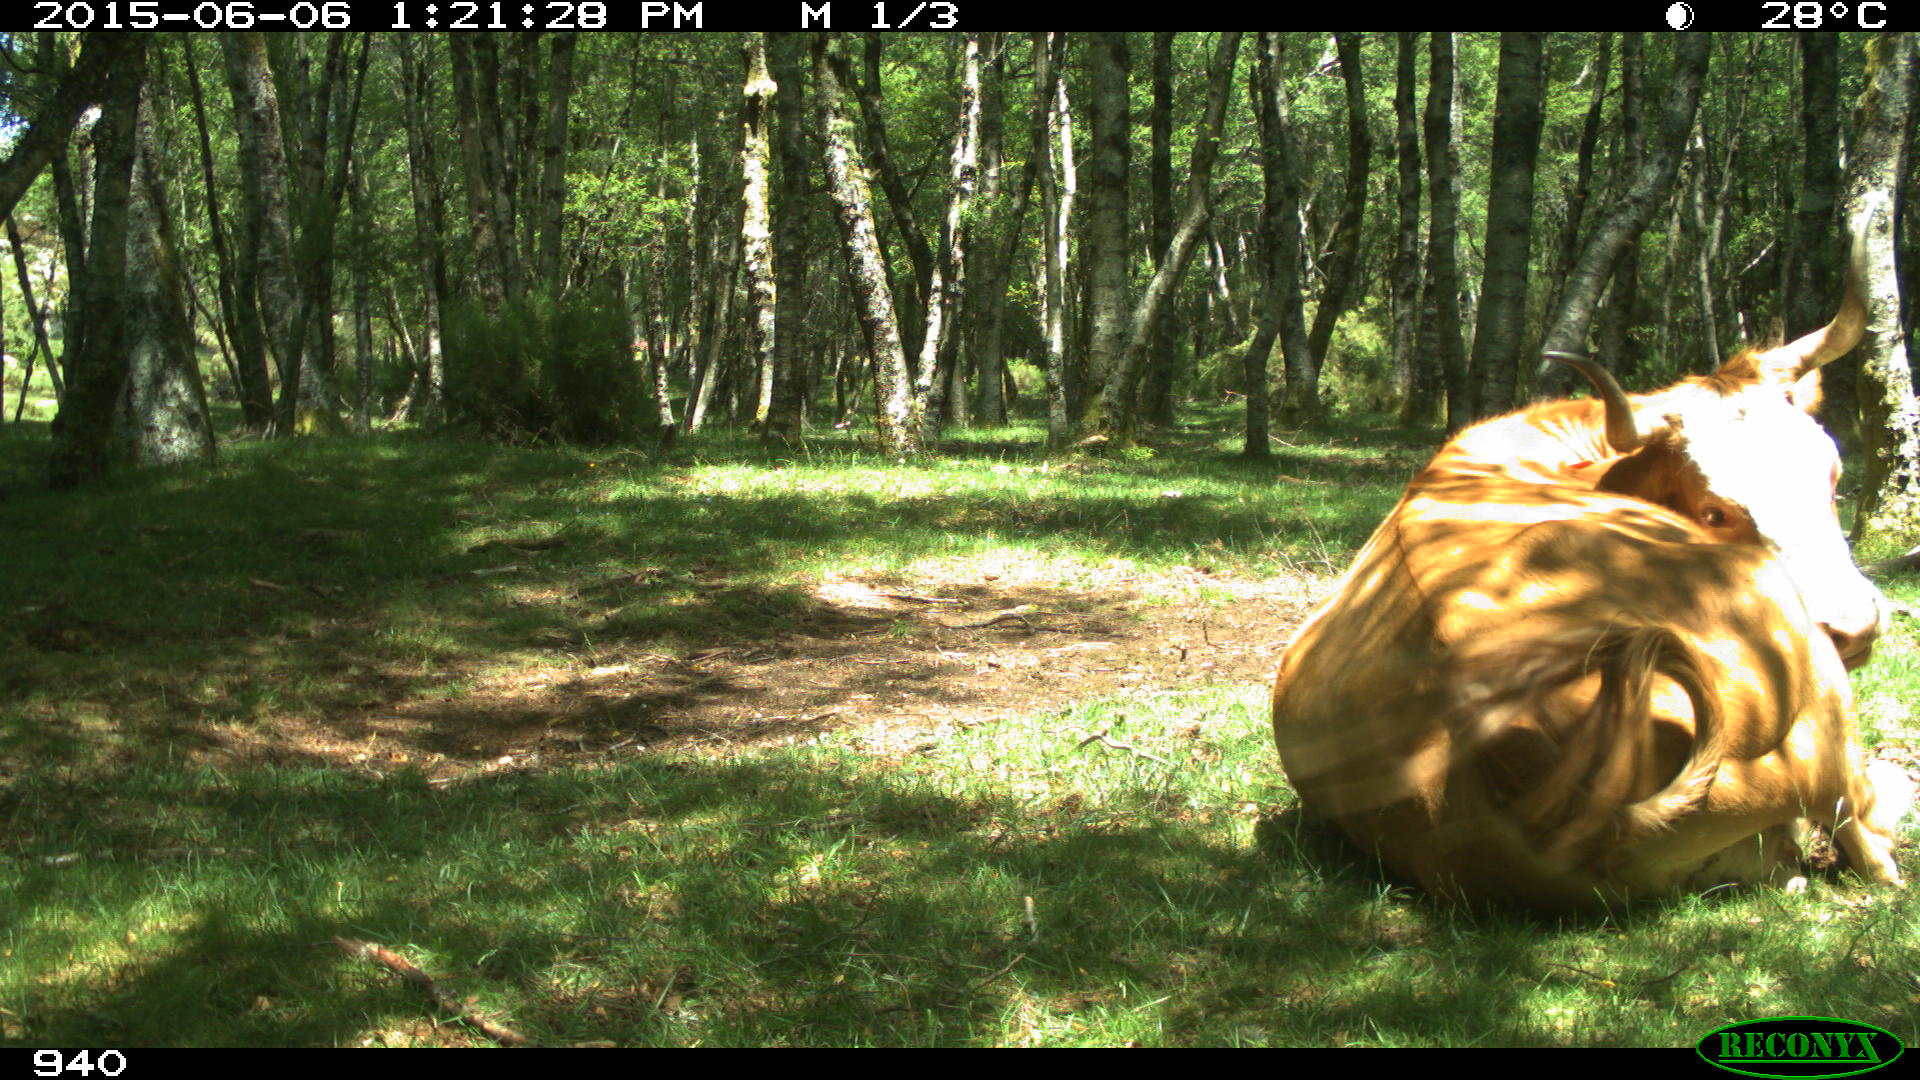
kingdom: Animalia
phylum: Chordata
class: Mammalia
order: Artiodactyla
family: Bovidae
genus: Bos
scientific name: Bos taurus
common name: Domesticated cattle
